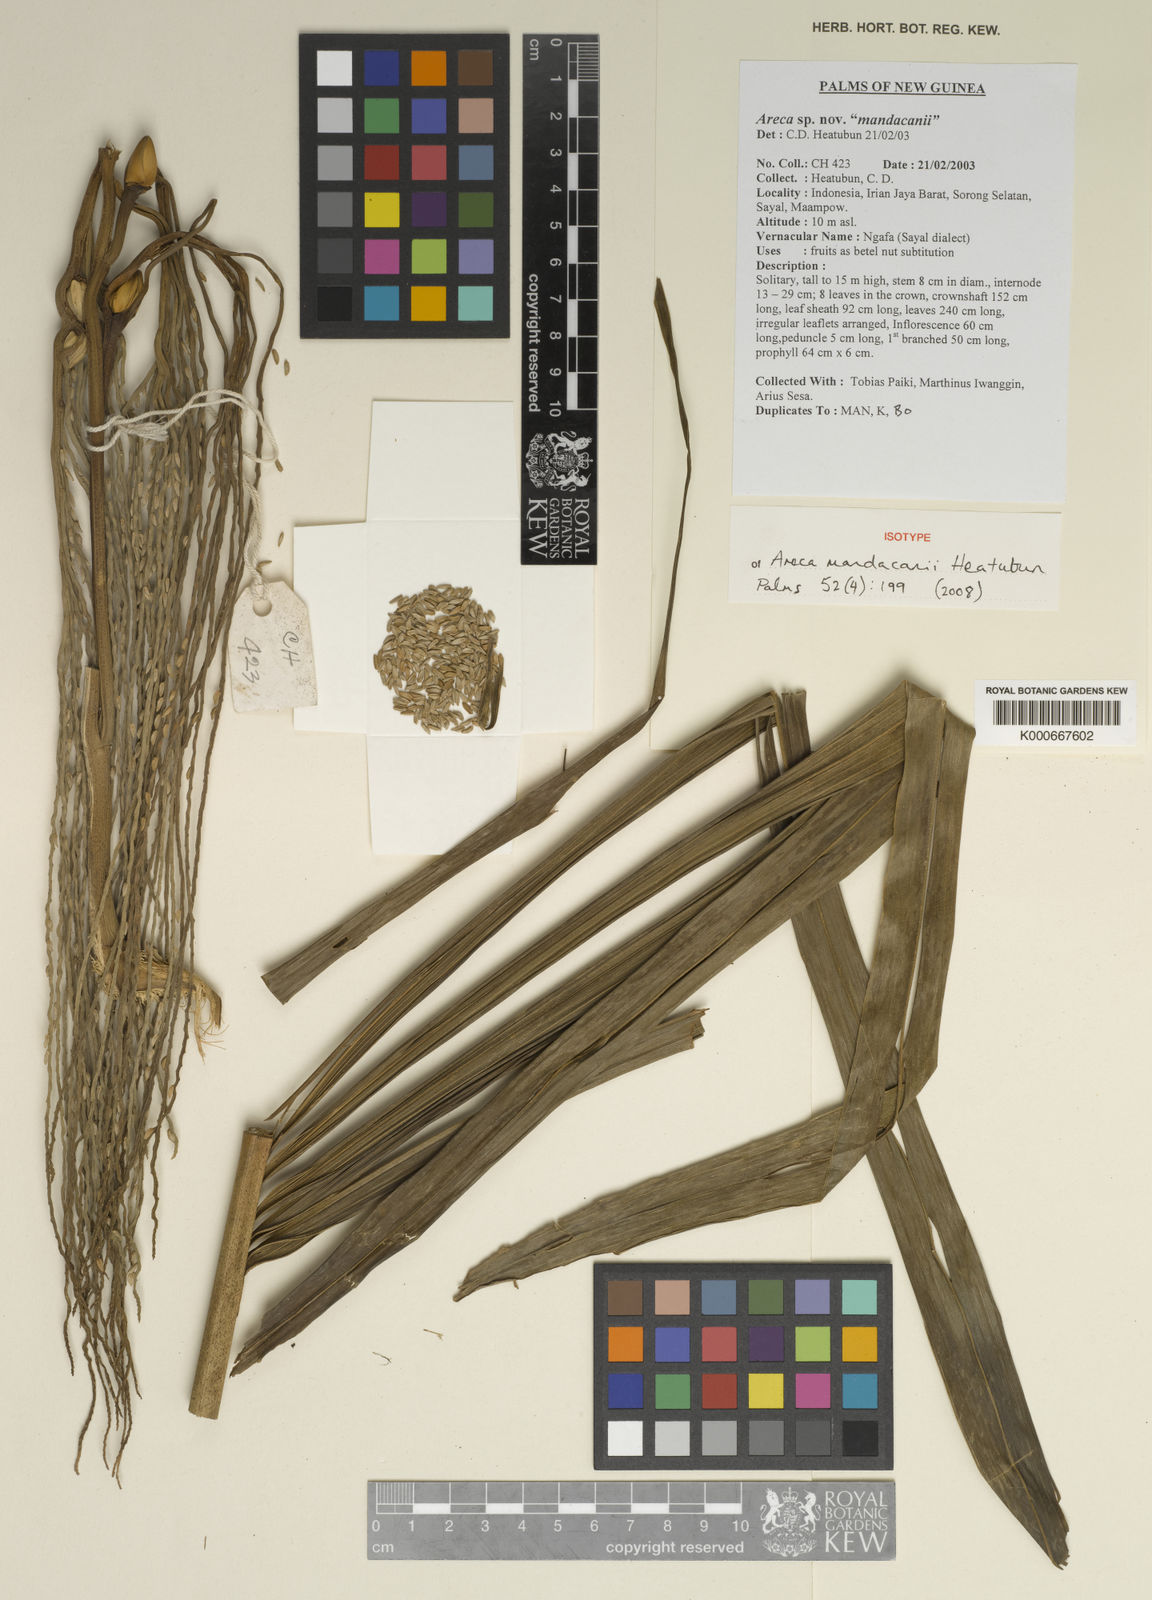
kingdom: Plantae
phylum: Tracheophyta
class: Liliopsida
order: Arecales
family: Arecaceae
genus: Areca
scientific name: Areca mandacanii
